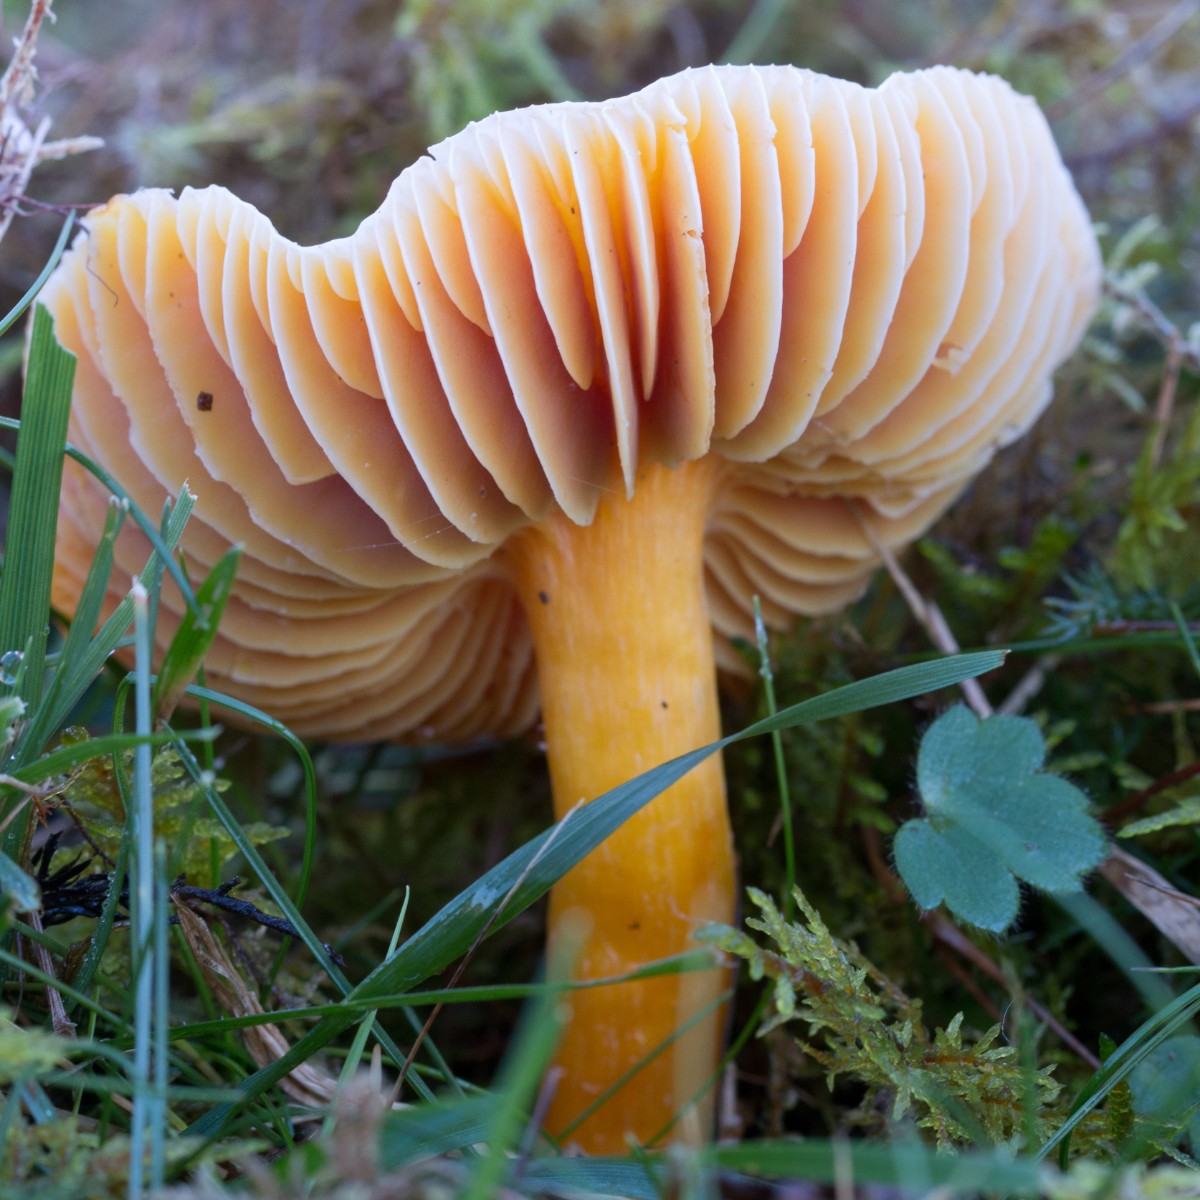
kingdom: Fungi
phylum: Basidiomycota
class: Agaricomycetes
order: Agaricales
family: Hygrophoraceae
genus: Hygrocybe
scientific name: Hygrocybe coccinea
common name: cinnober-vokshat
